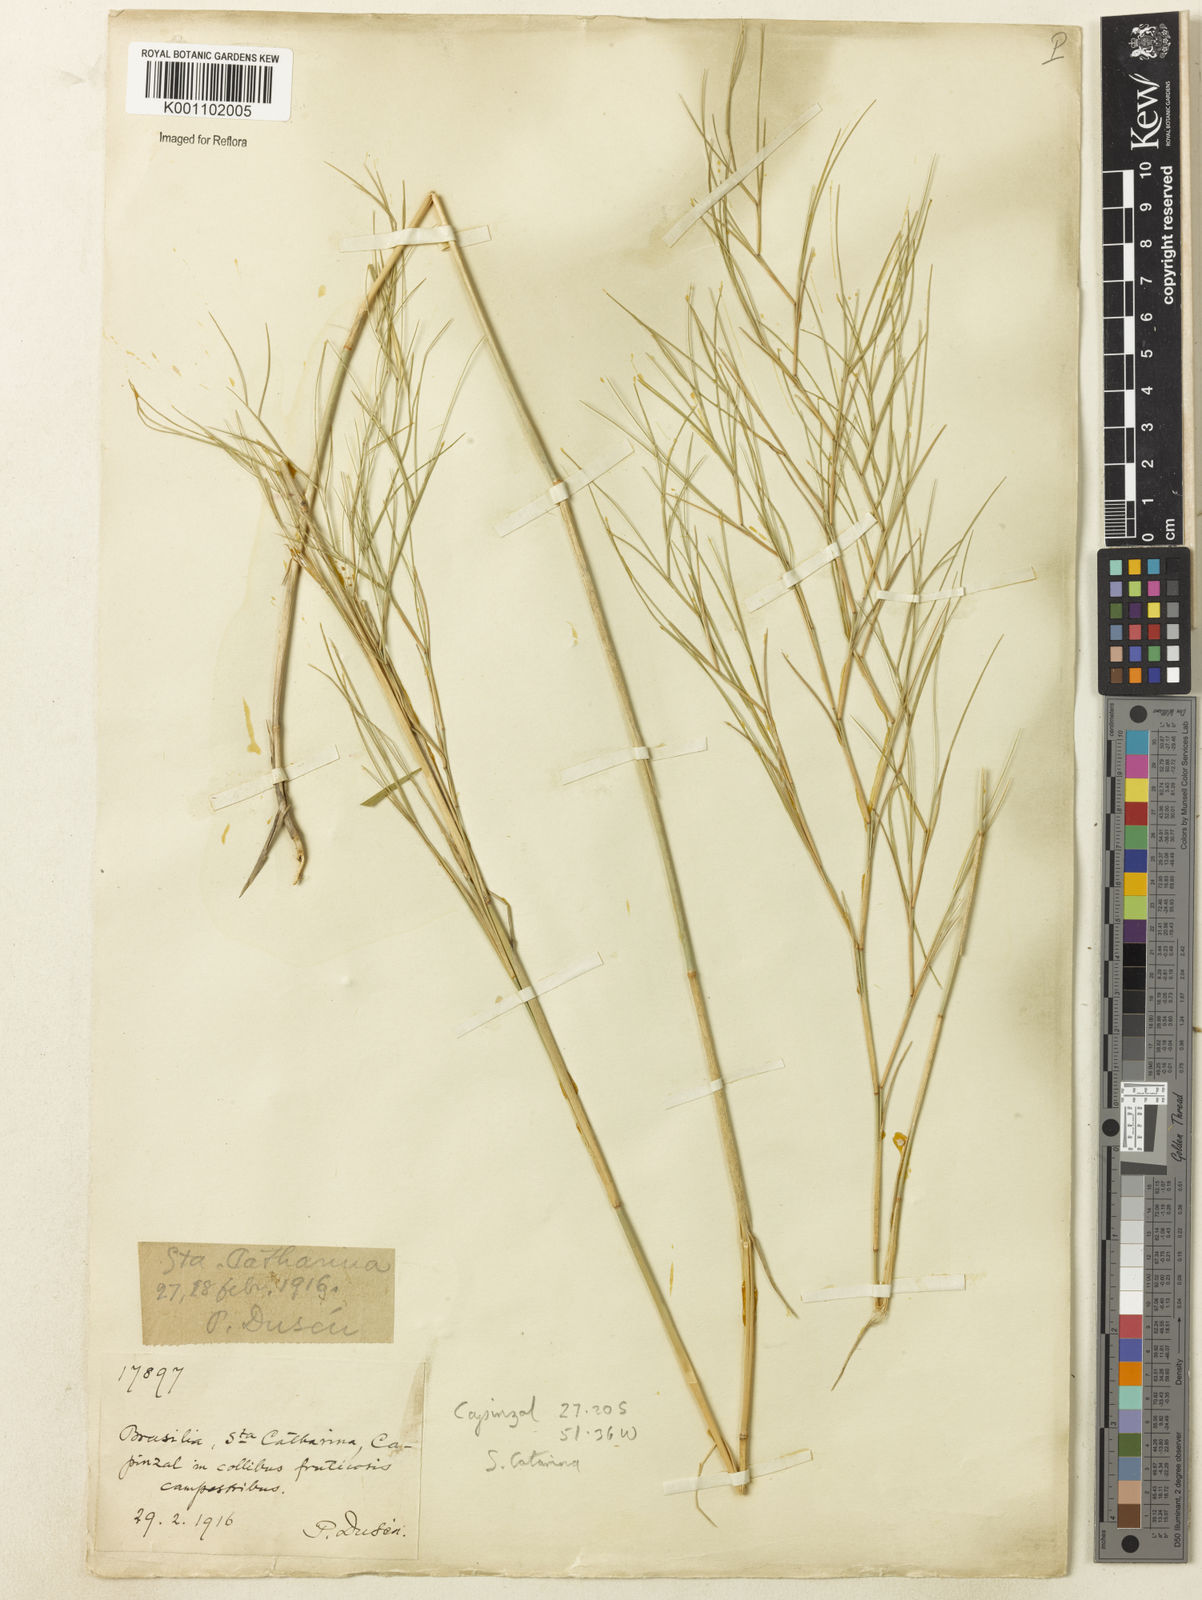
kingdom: Plantae
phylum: Tracheophyta
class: Liliopsida
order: Poales
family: Poaceae
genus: Muhlenbergia
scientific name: Muhlenbergia
